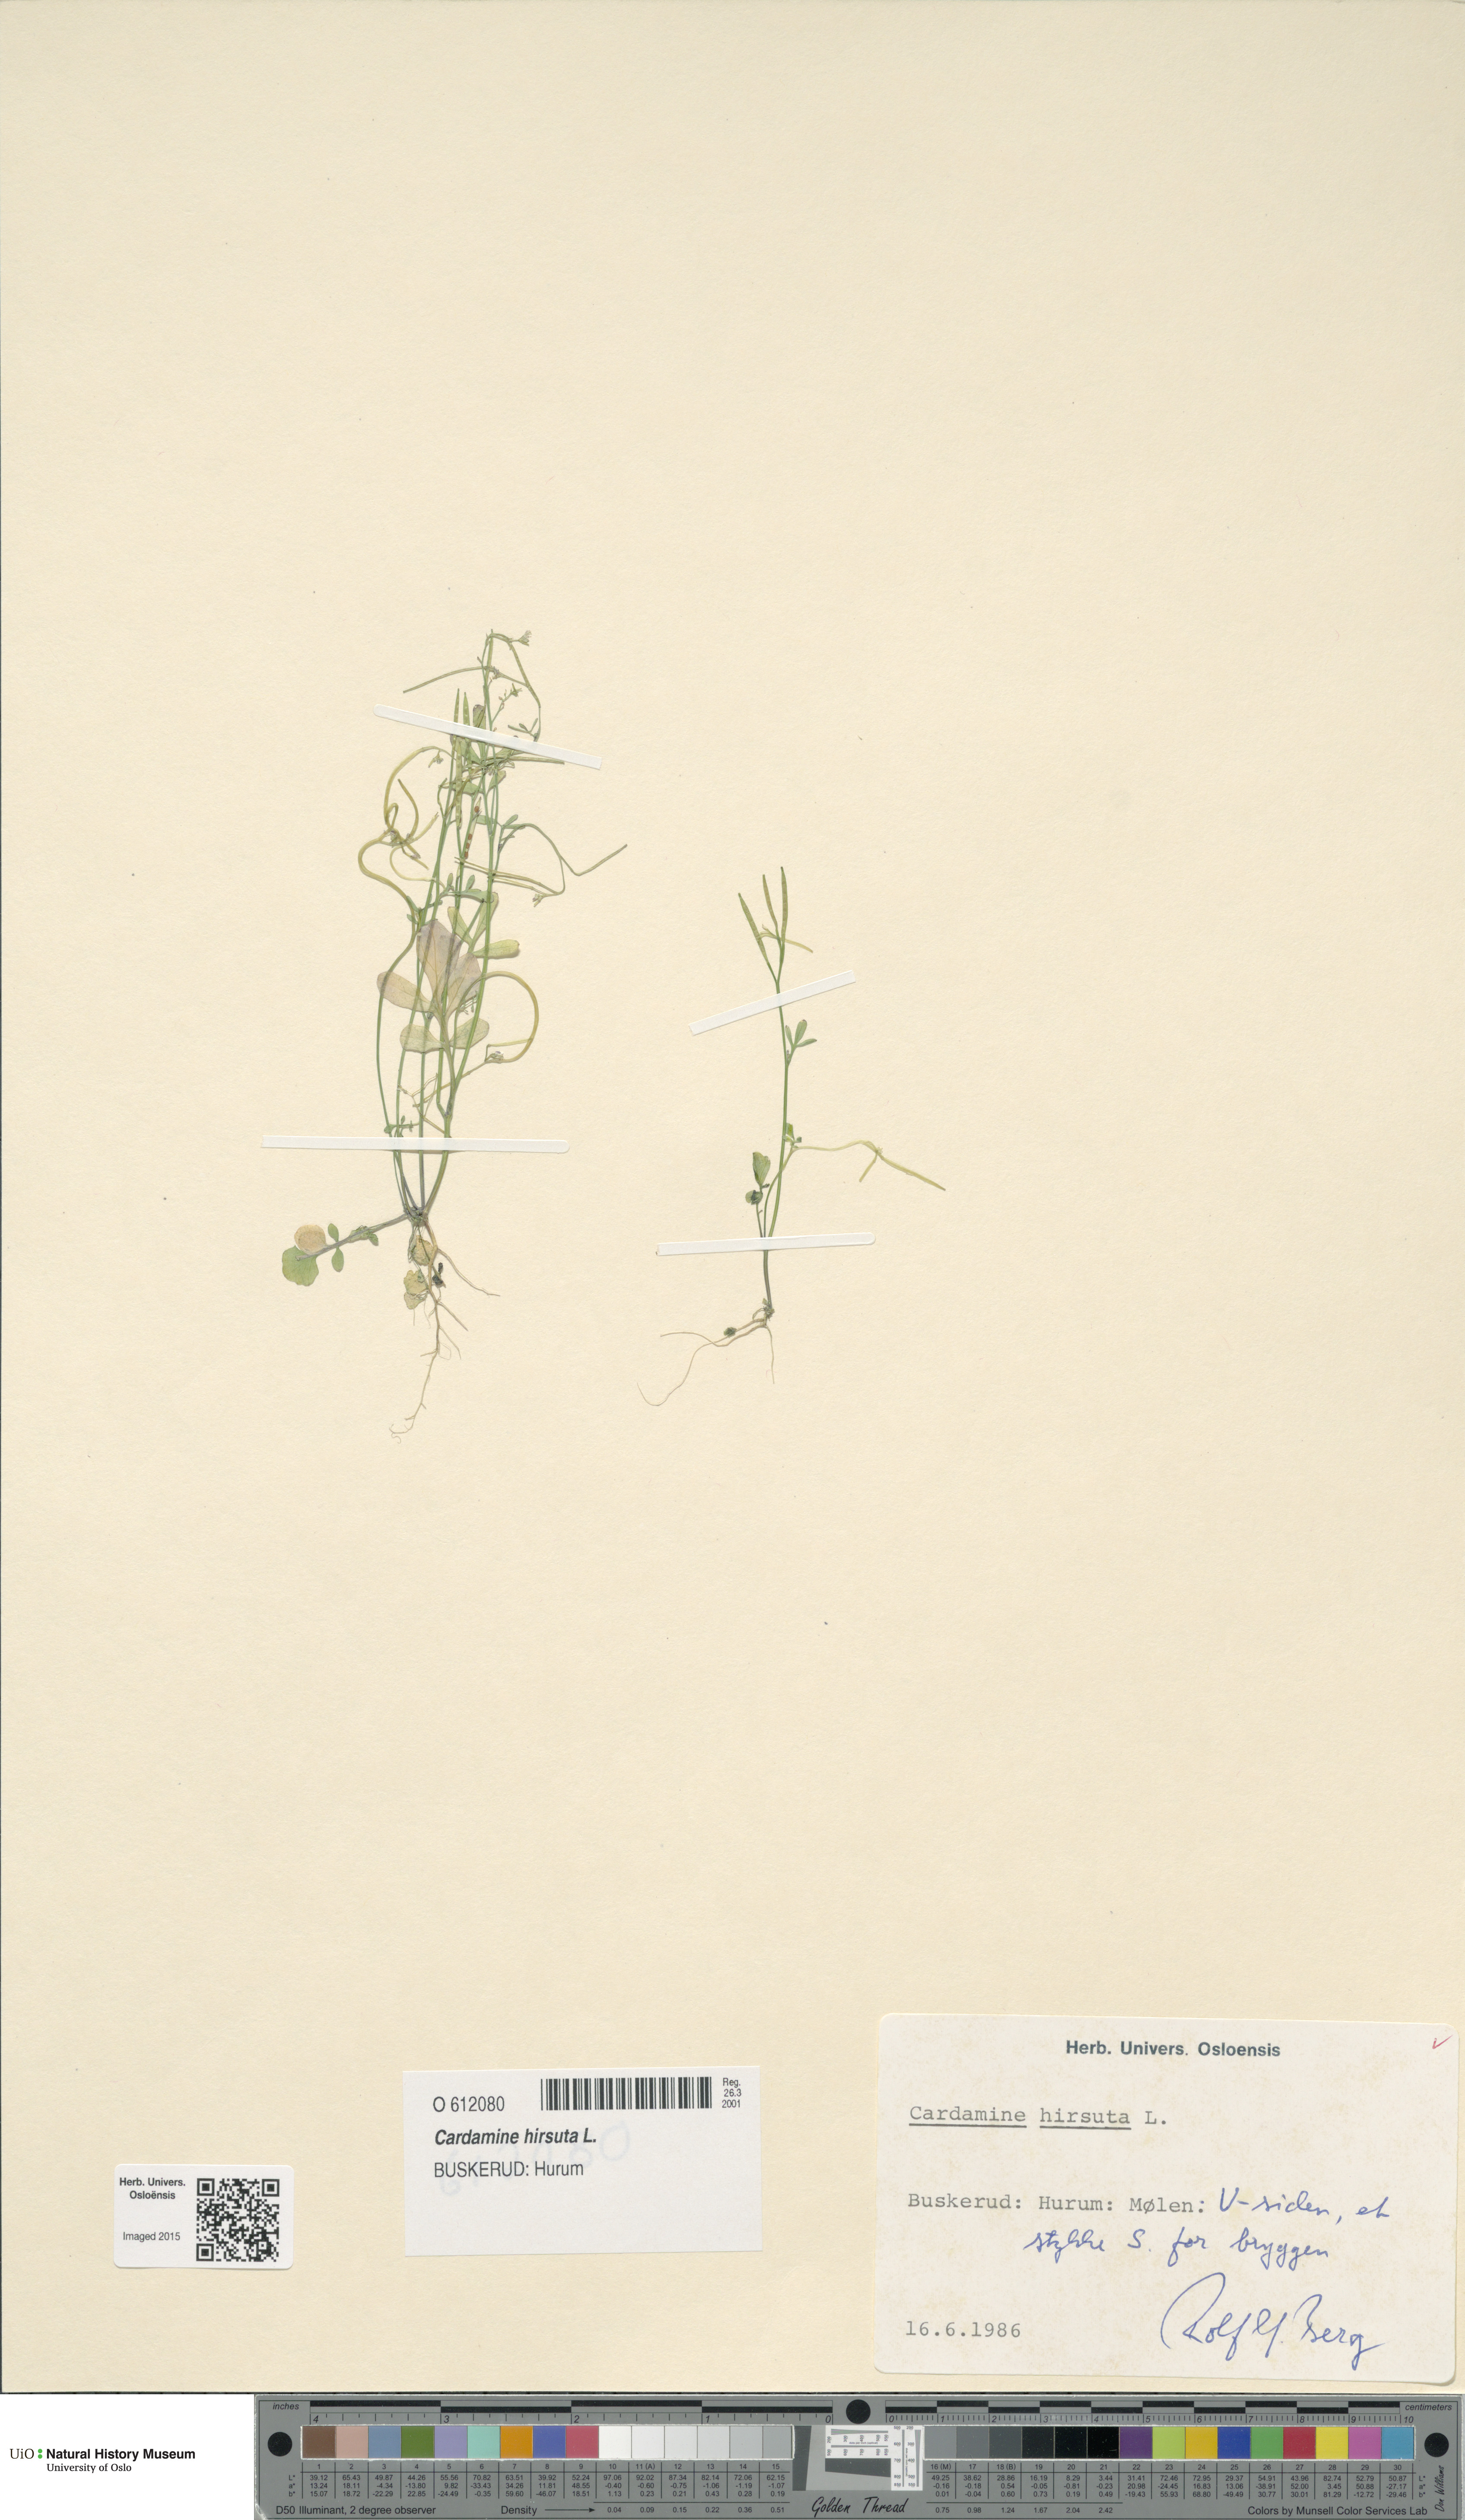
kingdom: Plantae
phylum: Tracheophyta
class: Magnoliopsida
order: Brassicales
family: Brassicaceae
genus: Cardamine
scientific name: Cardamine hirsuta
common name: Hairy bittercress
